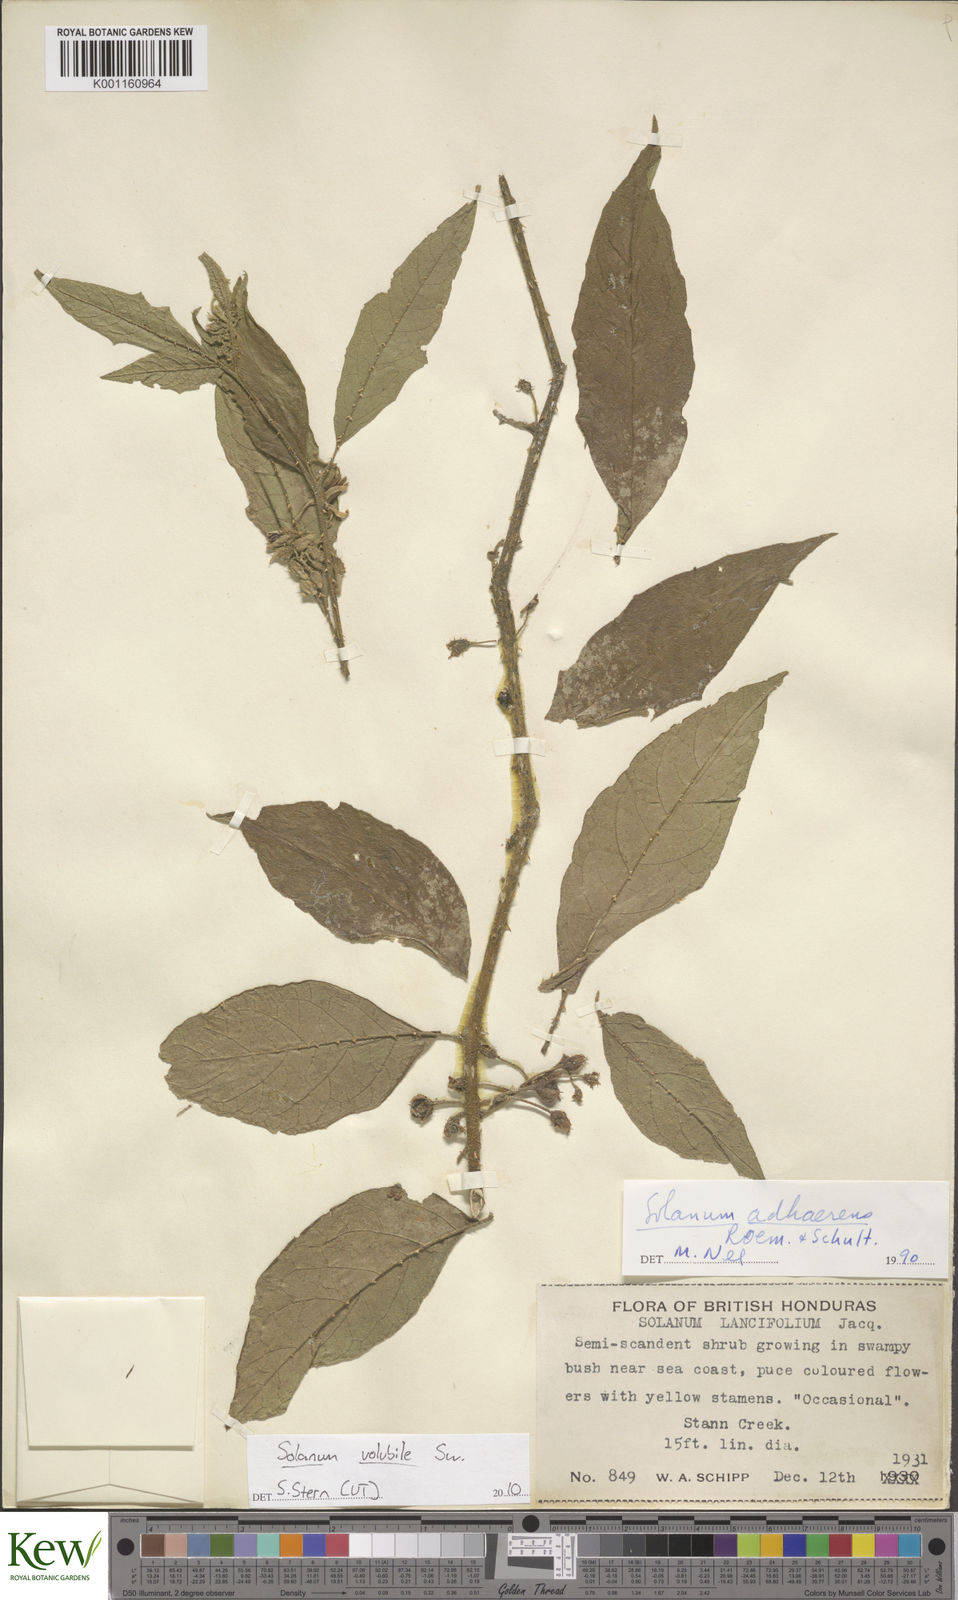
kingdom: Plantae
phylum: Tracheophyta
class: Magnoliopsida
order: Solanales
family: Solanaceae
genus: Solanum
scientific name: Solanum volubile
